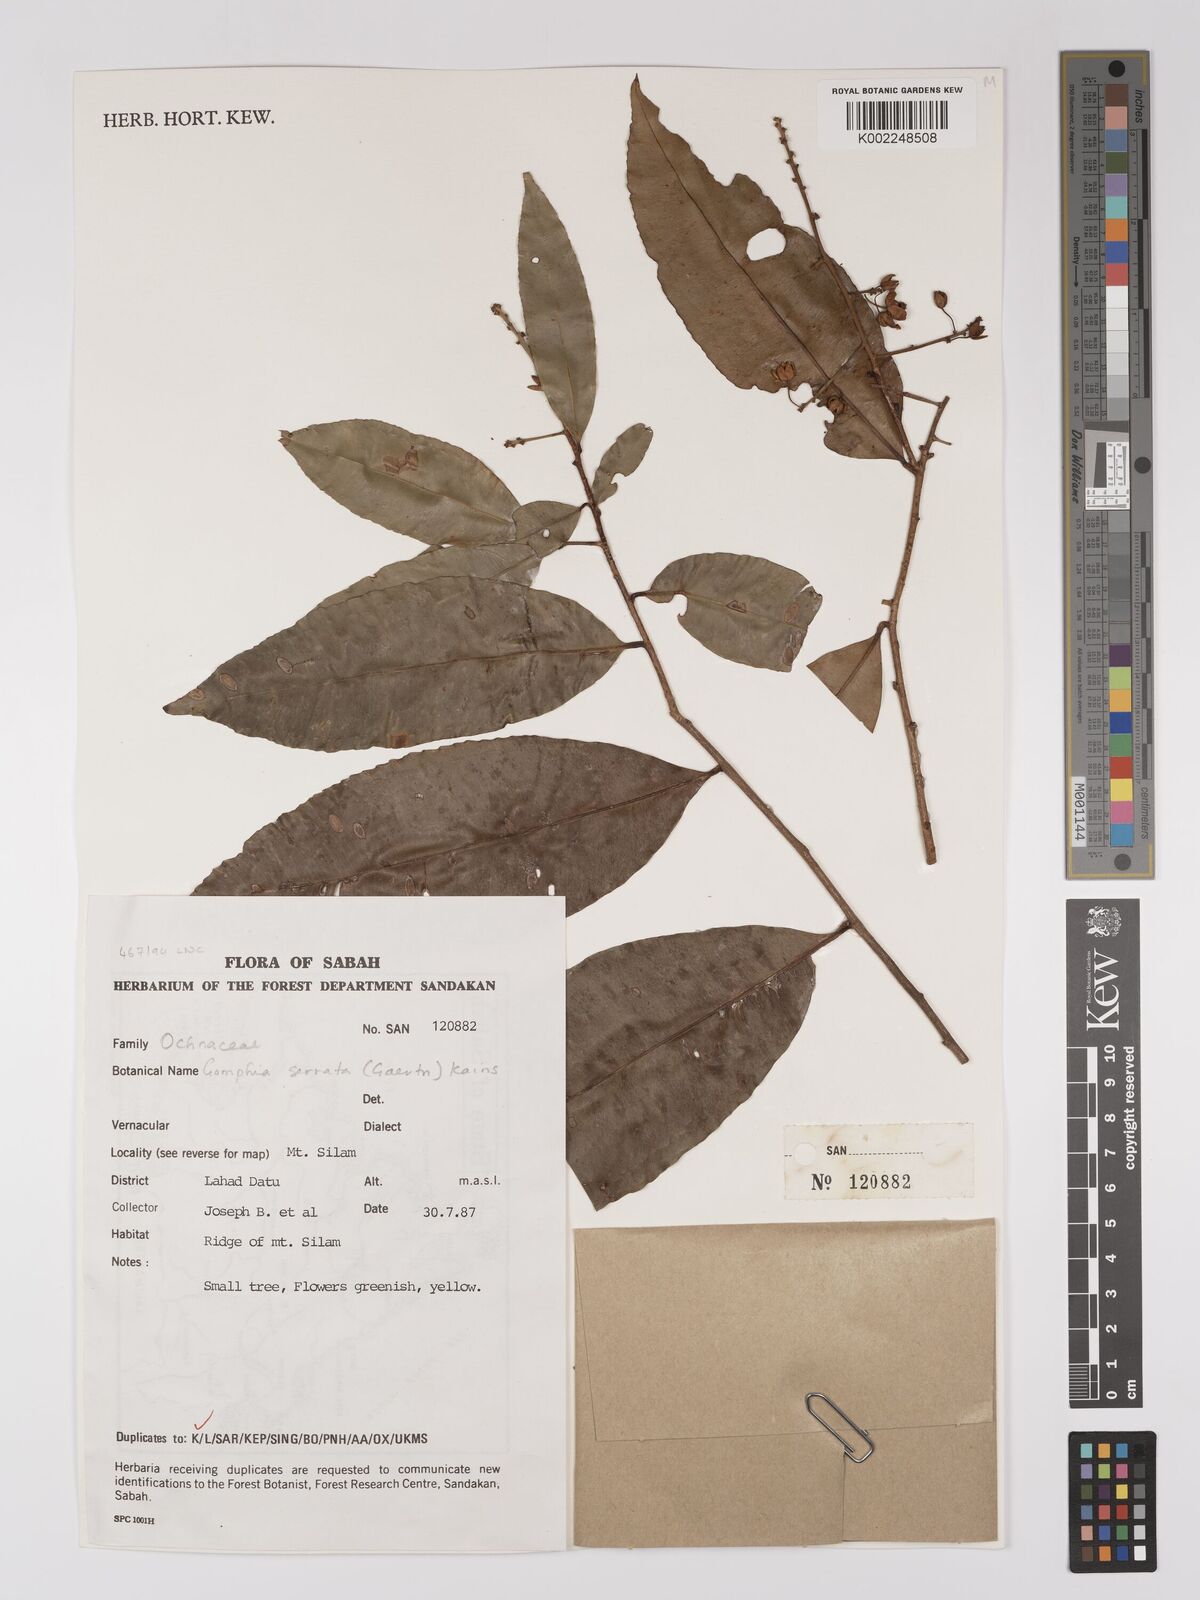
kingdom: Plantae
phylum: Tracheophyta
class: Magnoliopsida
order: Malpighiales
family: Ochnaceae
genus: Gomphia
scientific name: Gomphia serrata
